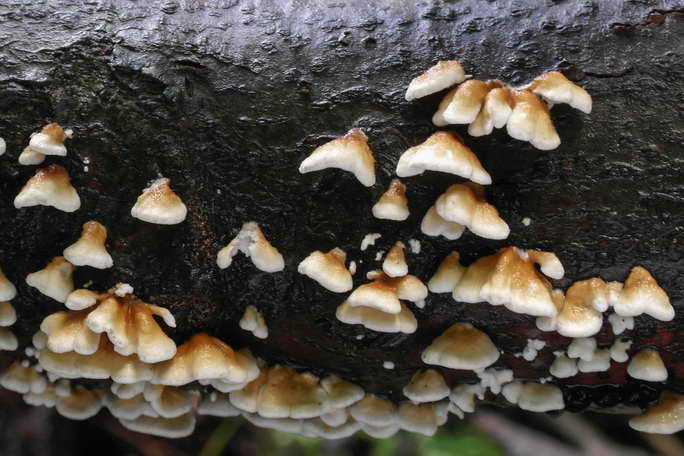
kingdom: Fungi
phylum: Basidiomycota
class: Agaricomycetes
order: Amylocorticiales
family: Amylocorticiaceae
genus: Plicaturopsis
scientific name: Plicaturopsis crispa
